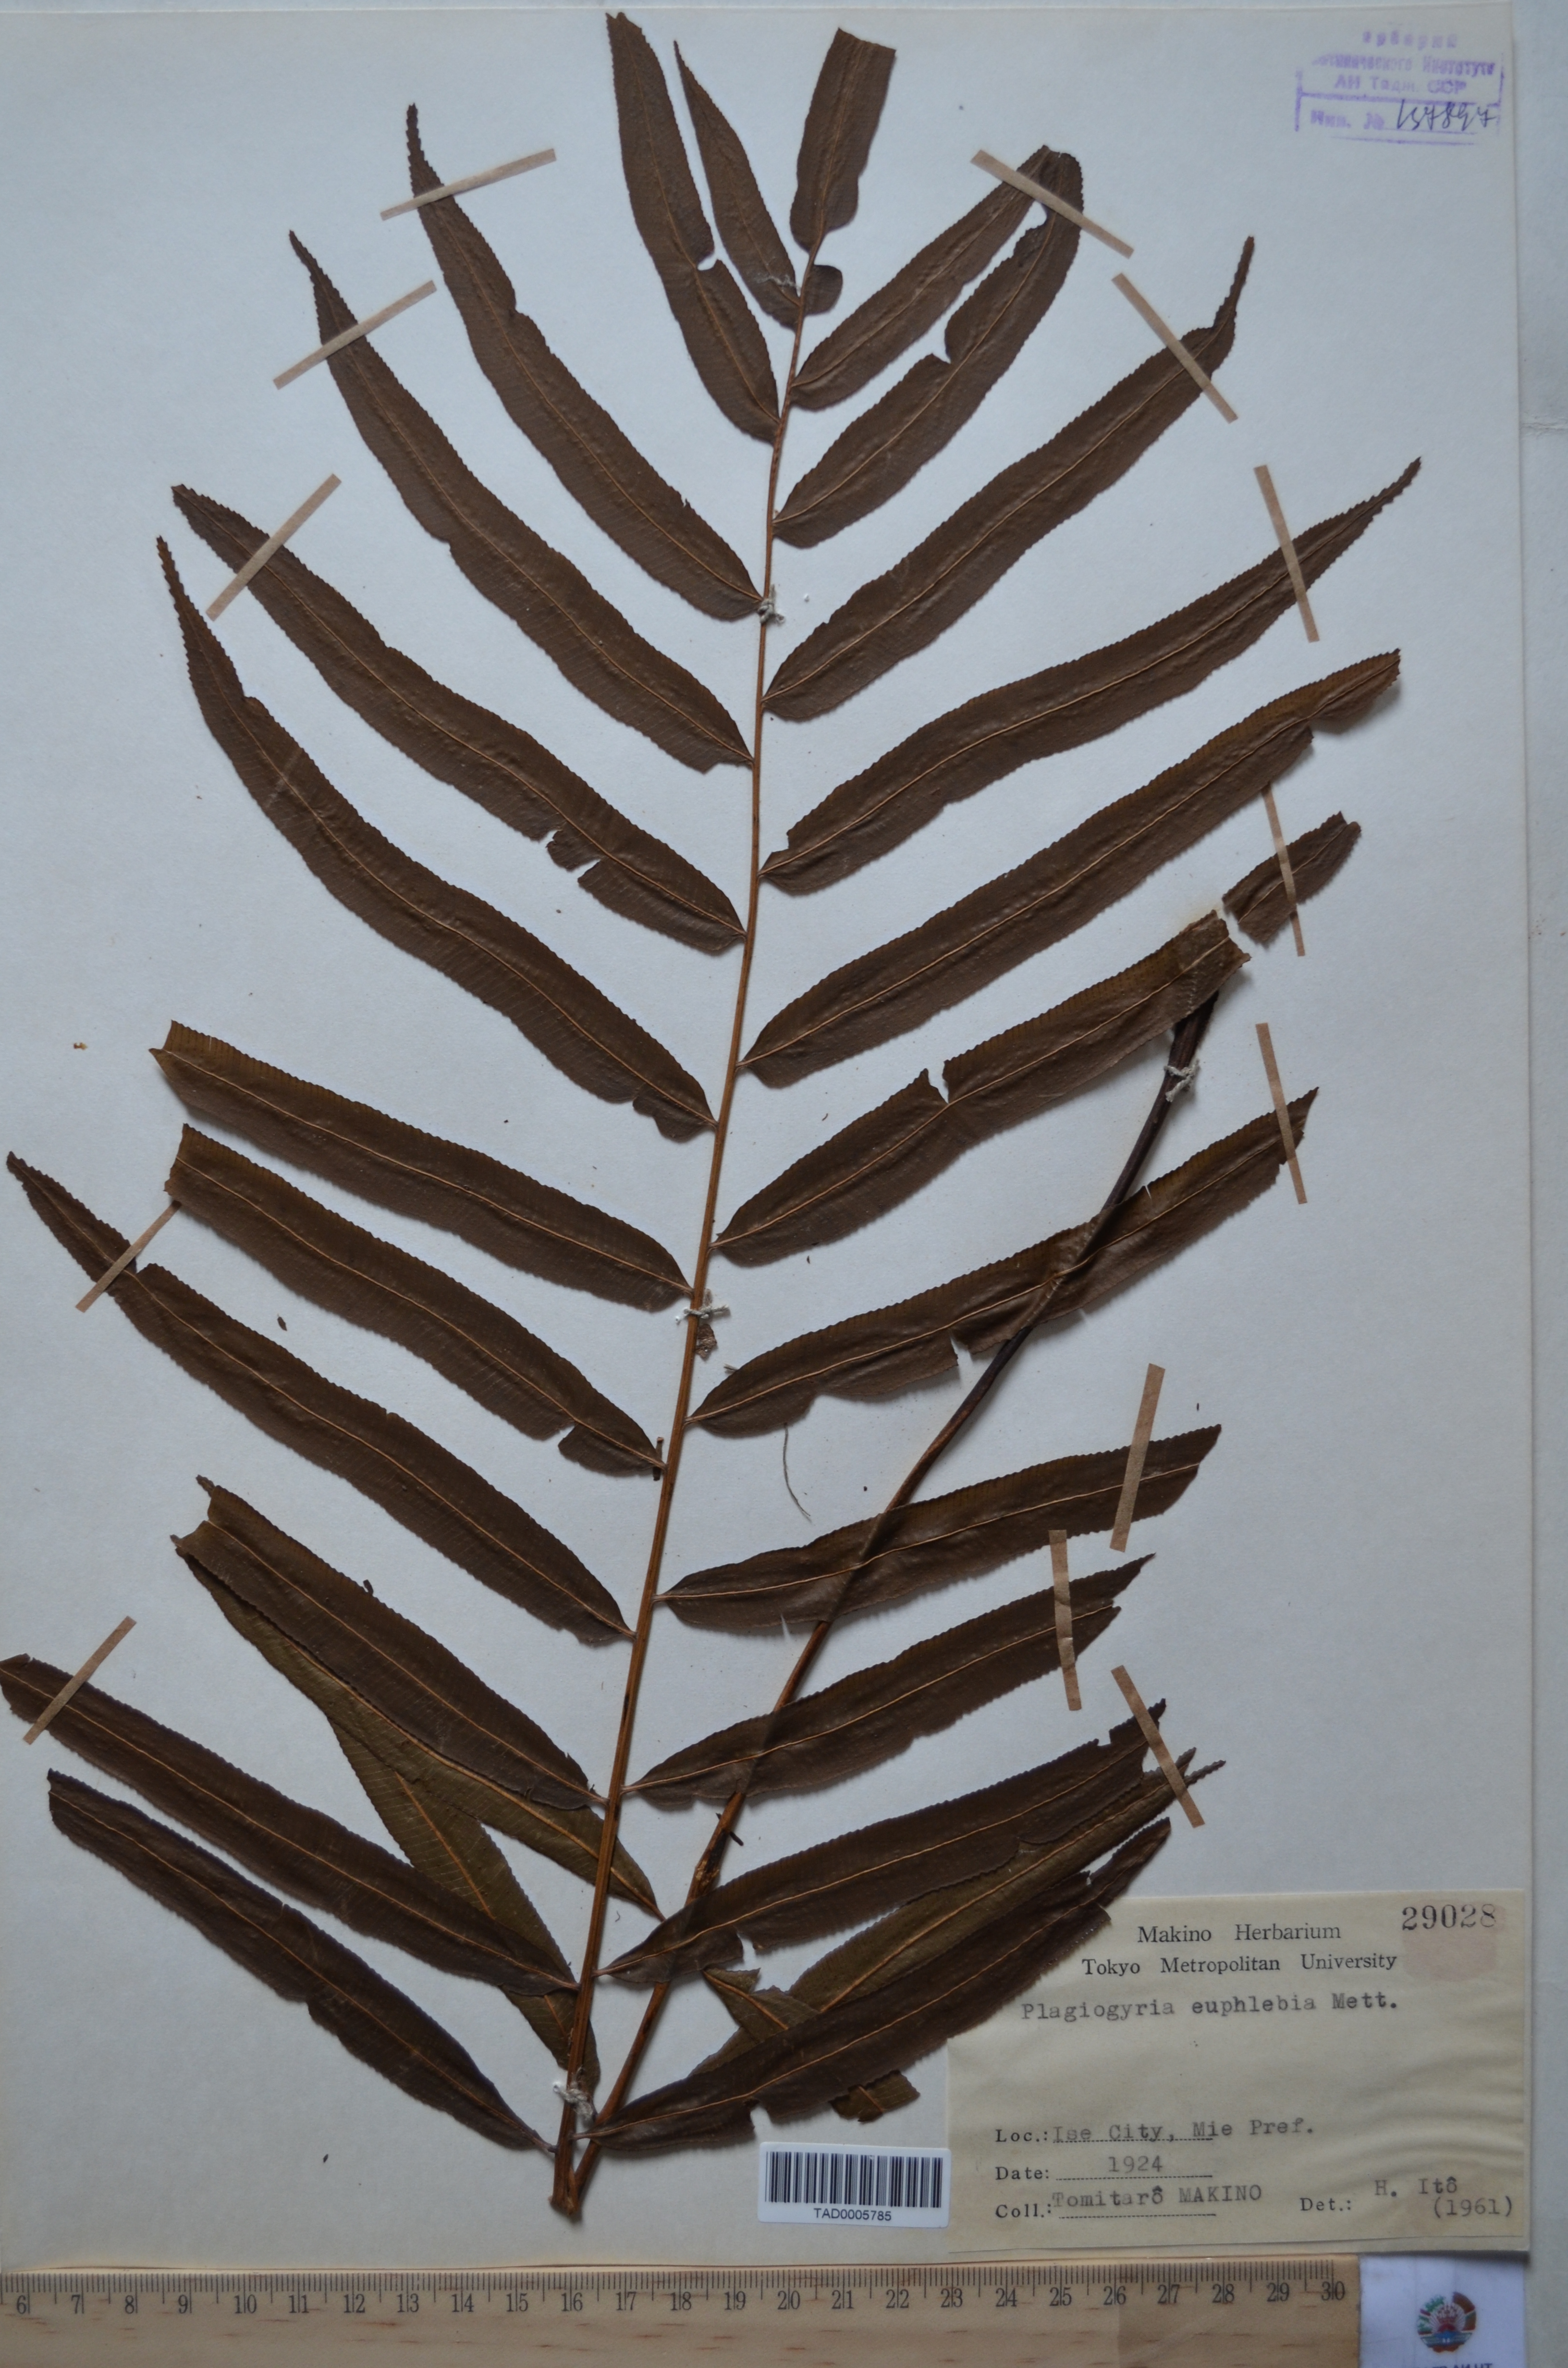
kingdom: Plantae
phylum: Tracheophyta
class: Polypodiopsida
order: Cyatheales
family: Plagiogyriaceae
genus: Plagiogyria
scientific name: Plagiogyria euphlebia
